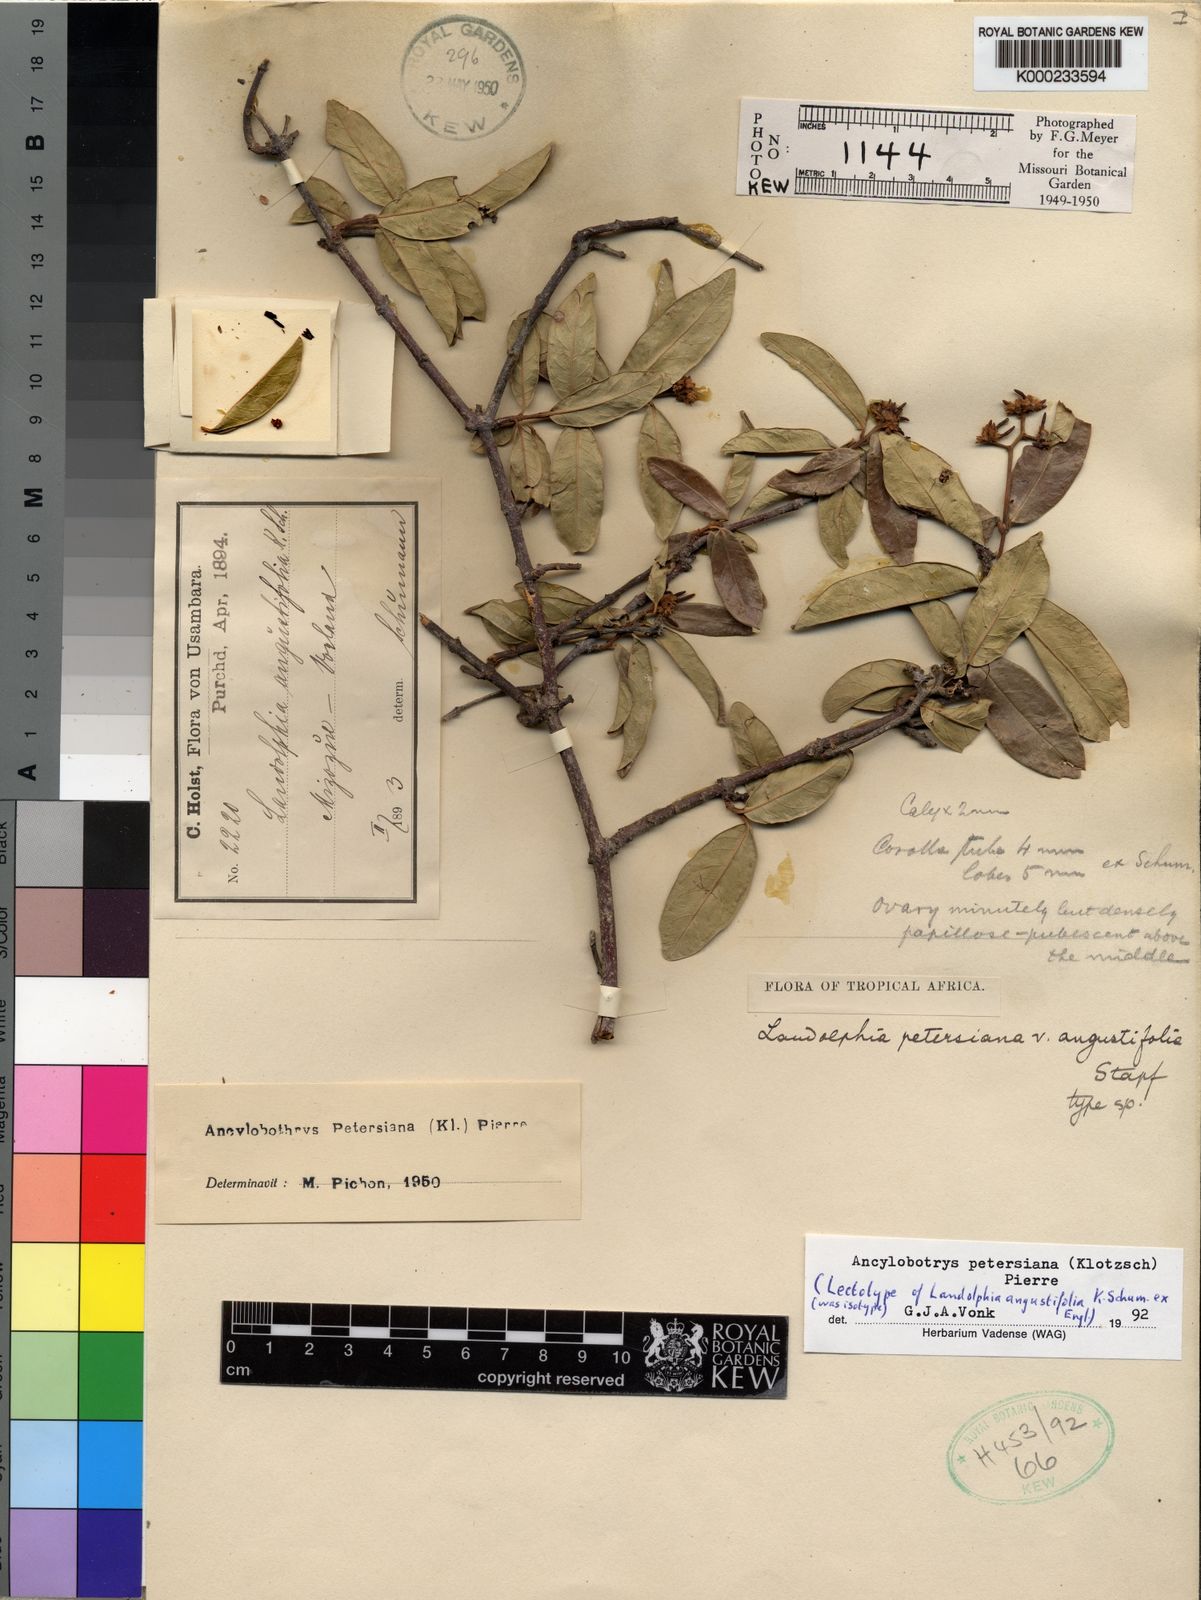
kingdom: Plantae
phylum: Tracheophyta
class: Magnoliopsida
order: Gentianales
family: Apocynaceae
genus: Ancylobothrys
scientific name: Ancylobothrys petersiana
